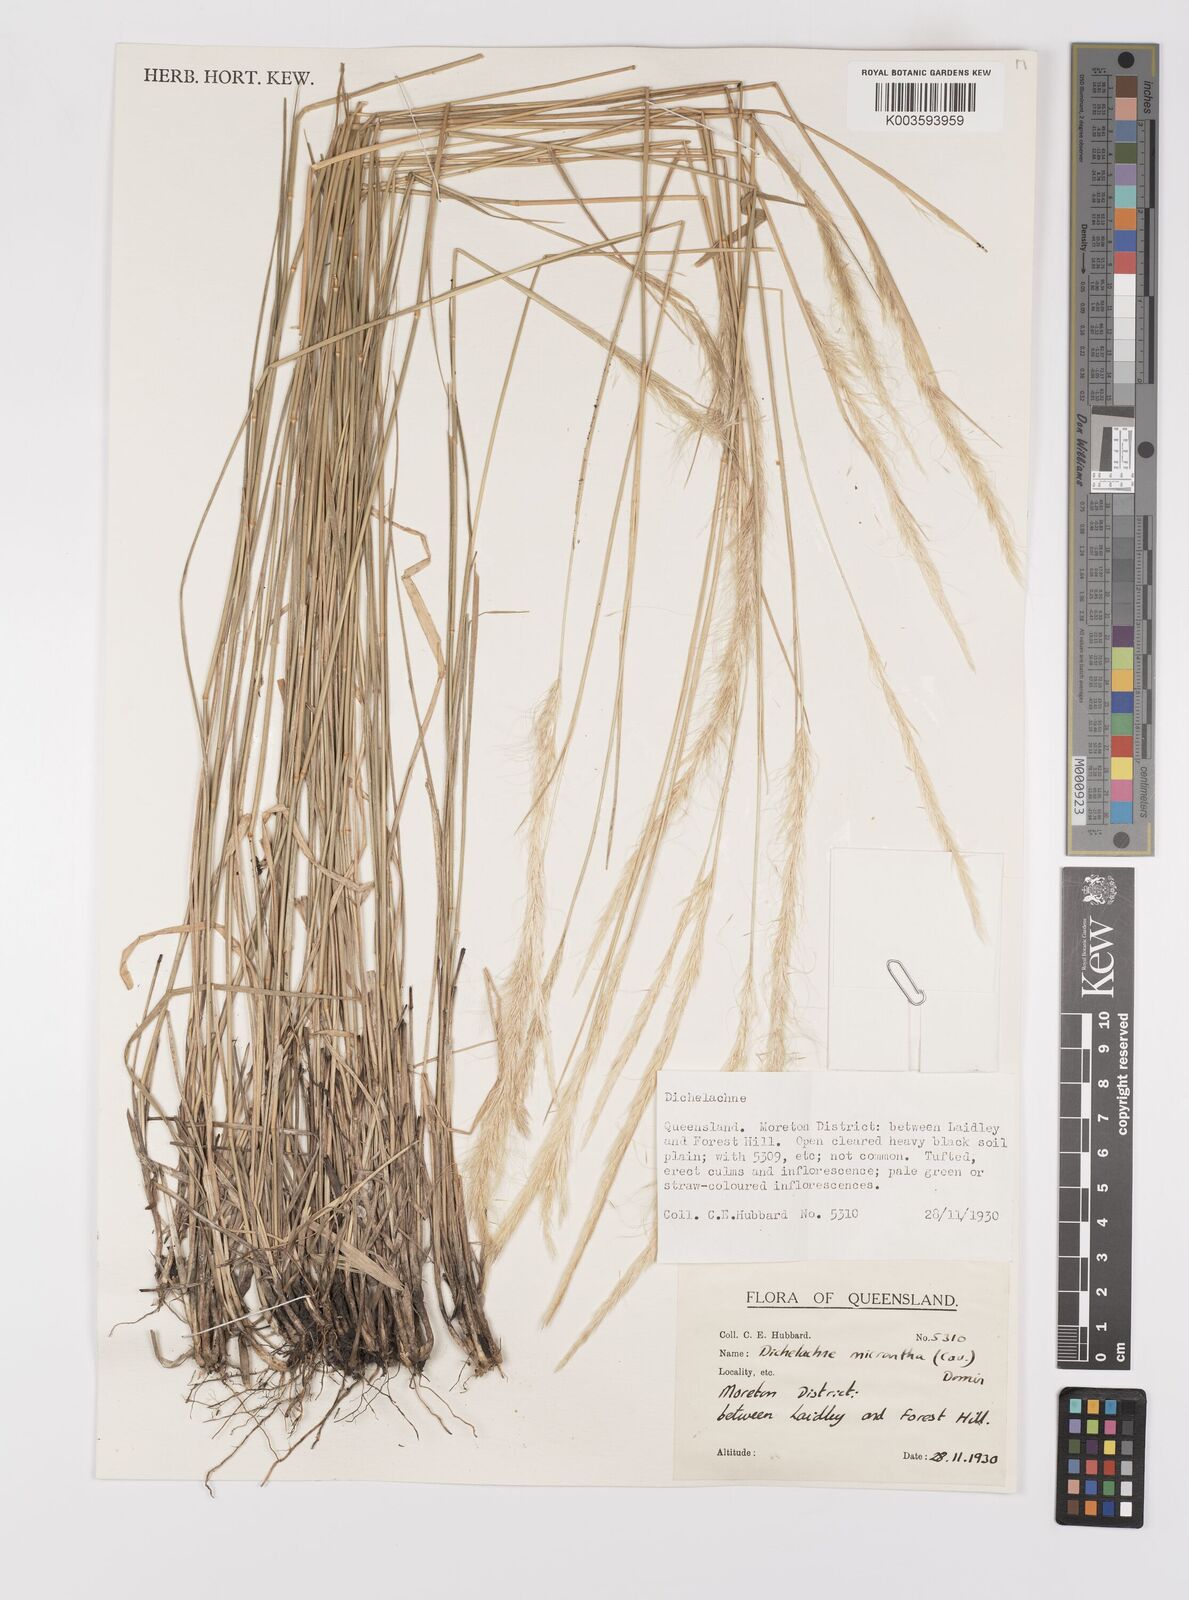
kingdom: Plantae
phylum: Tracheophyta
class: Liliopsida
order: Poales
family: Poaceae
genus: Dichelachne
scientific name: Dichelachne micrantha
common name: Plumegrass
